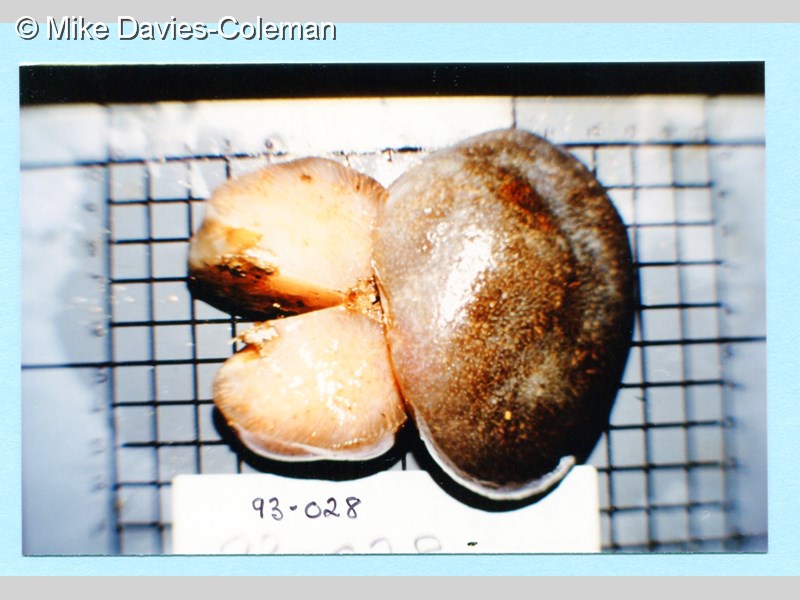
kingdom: Animalia
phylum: Chordata
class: Ascidiacea
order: Aplousobranchia
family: Pseudodistomidae
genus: Pseudodistoma
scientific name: Pseudodistoma
